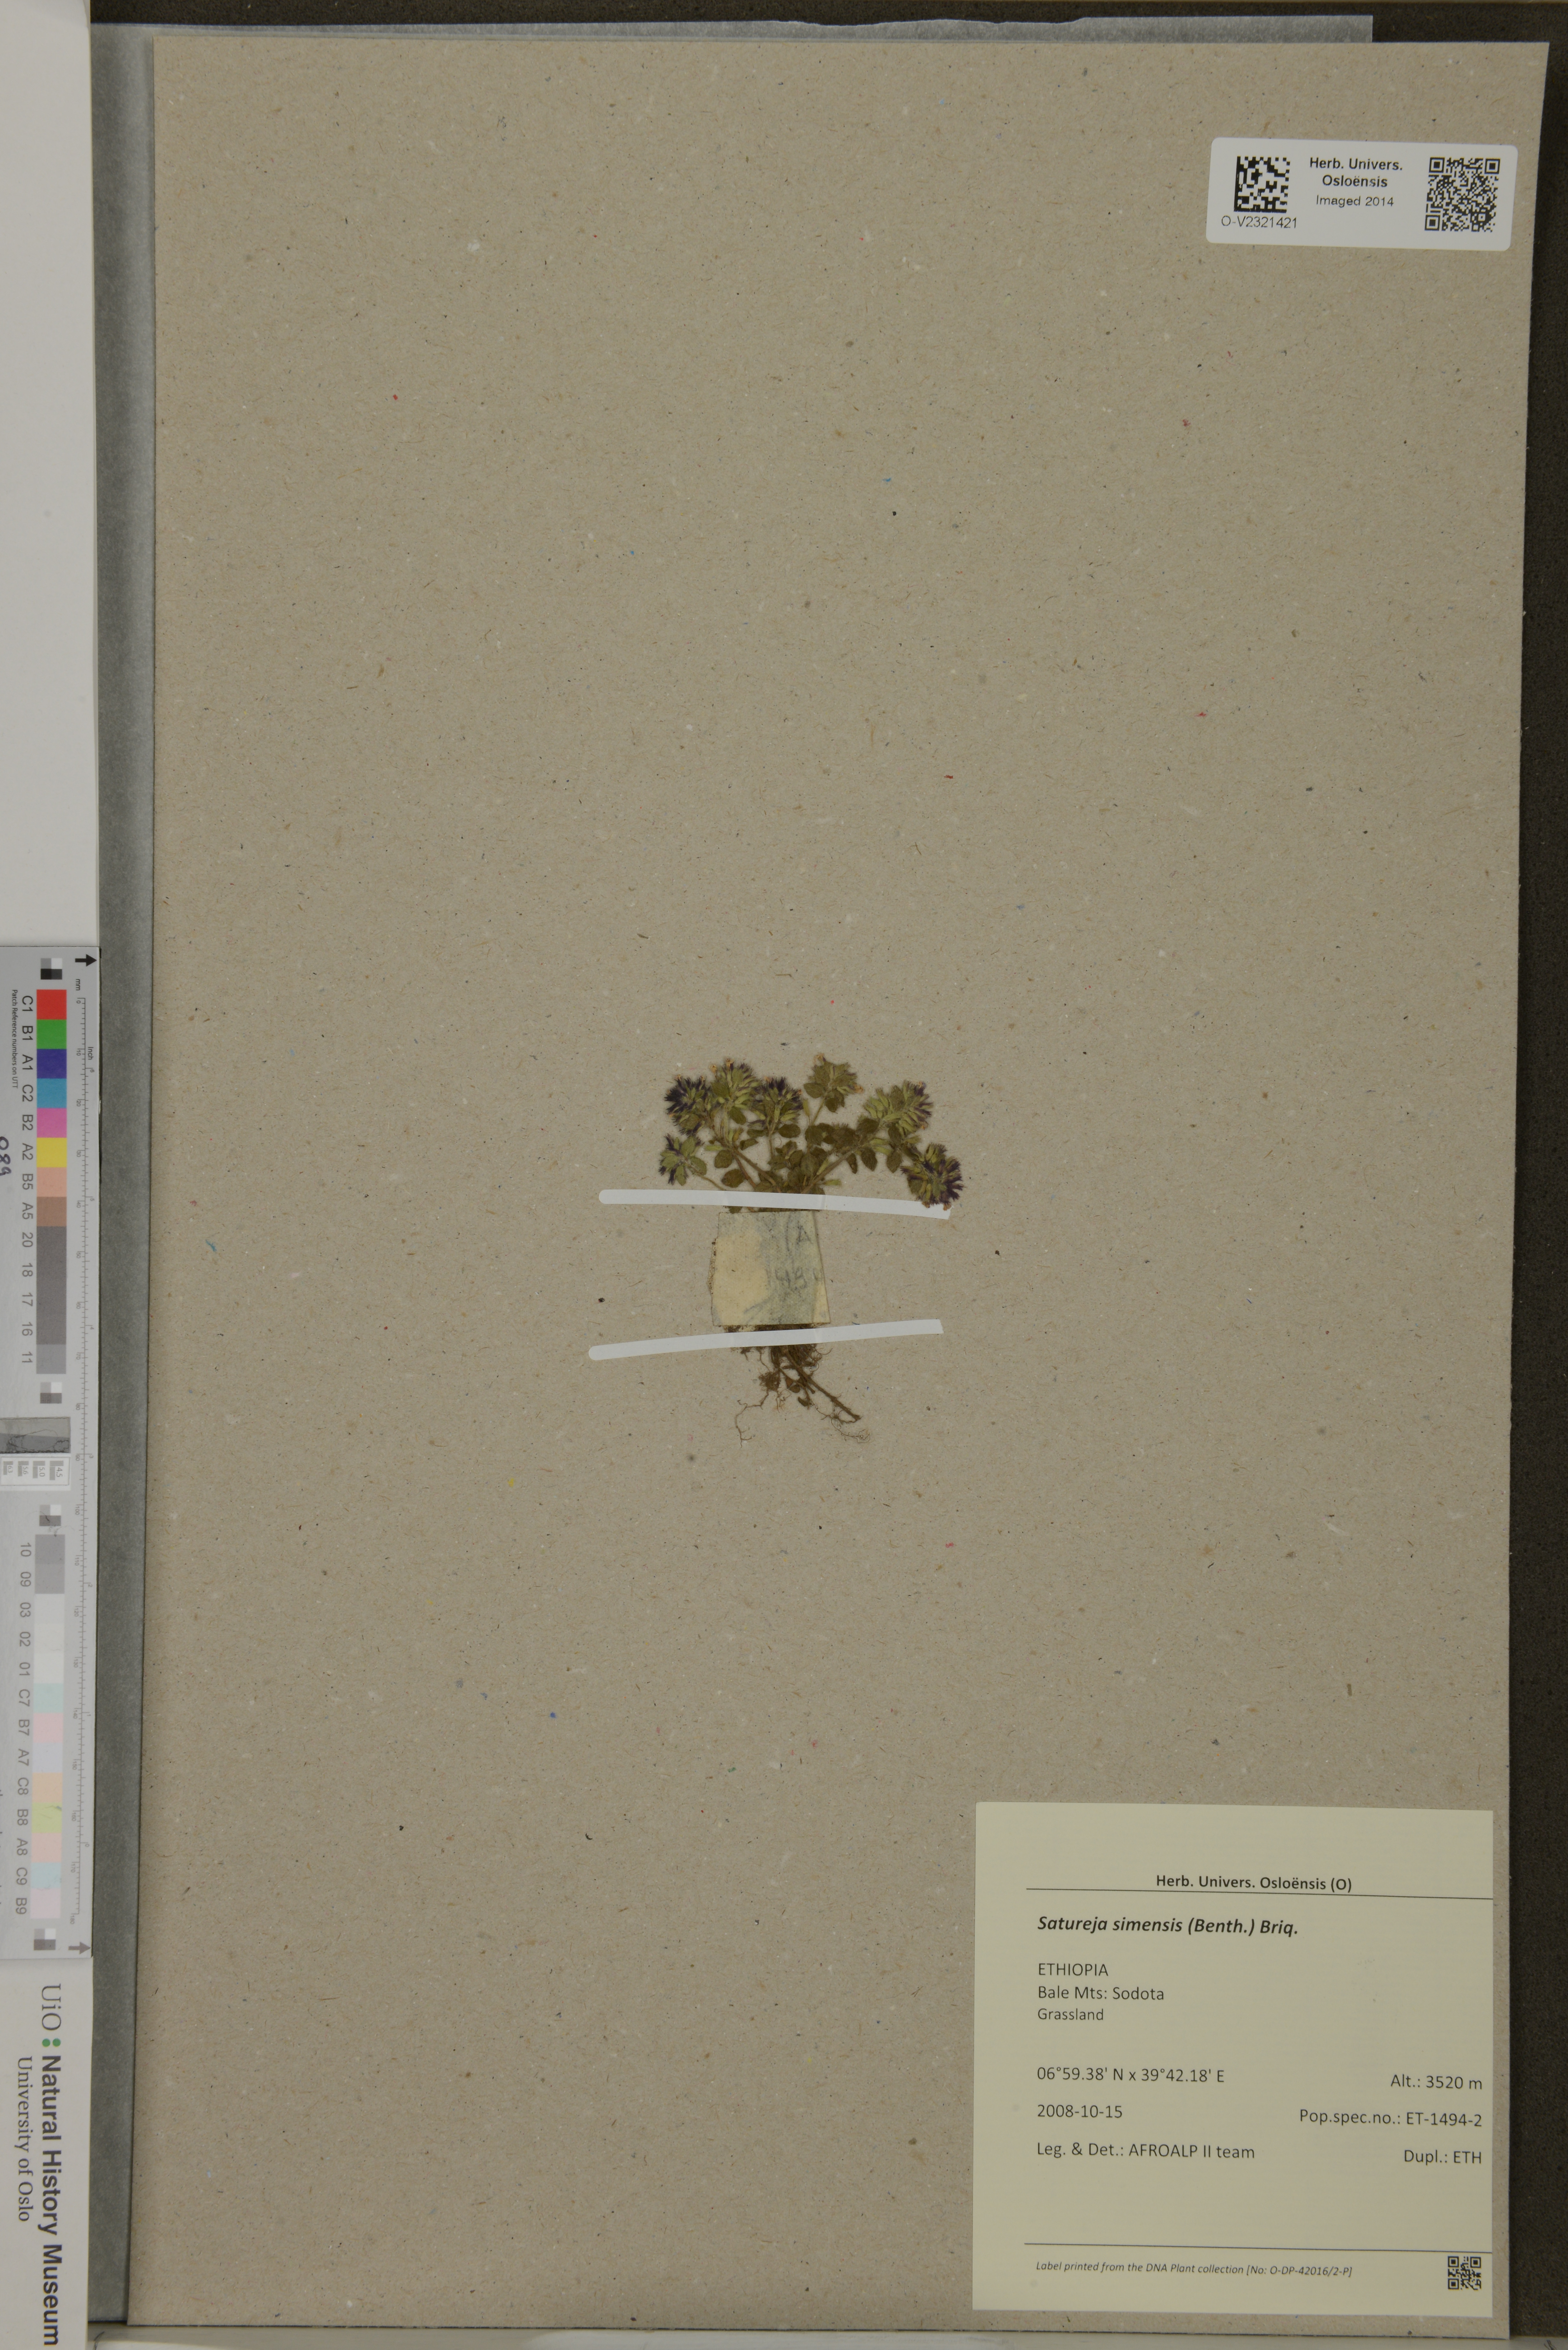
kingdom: Plantae
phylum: Tracheophyta
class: Magnoliopsida
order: Lamiales
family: Lamiaceae
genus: Clinopodium
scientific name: Clinopodium simense
